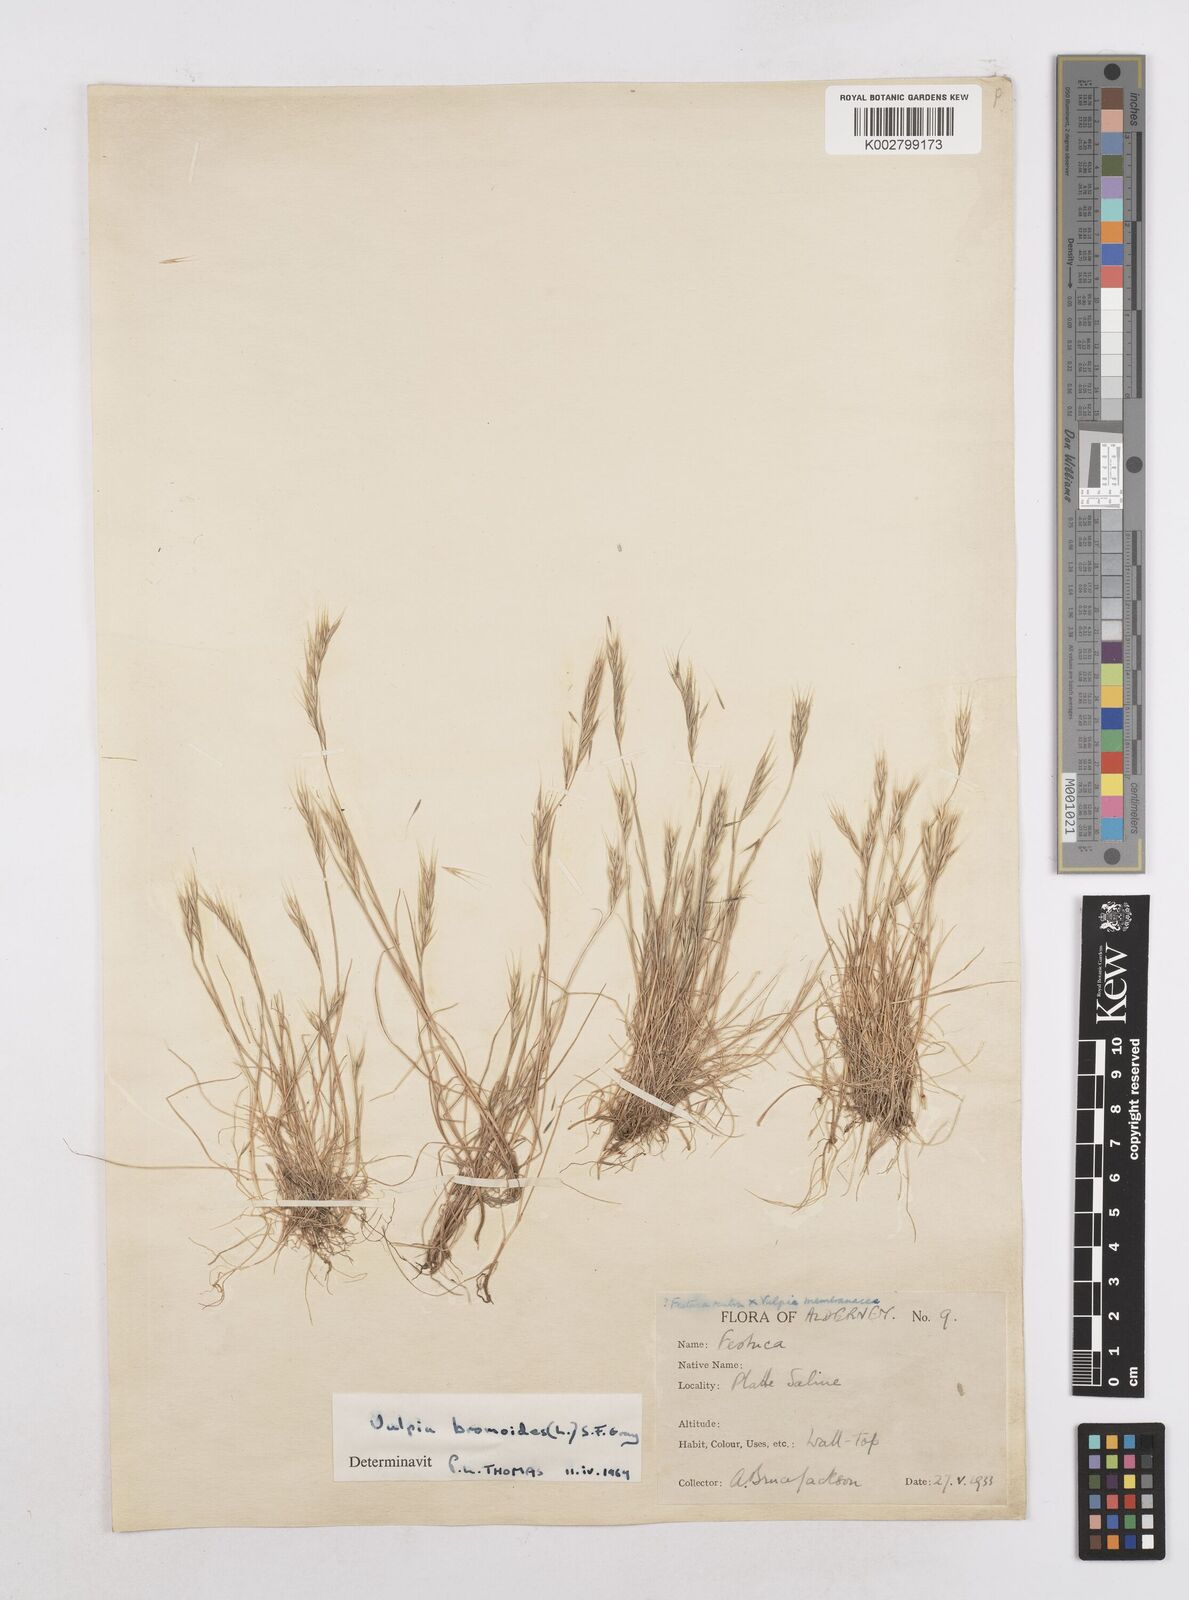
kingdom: Plantae
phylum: Tracheophyta
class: Liliopsida
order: Poales
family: Poaceae
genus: Festuca
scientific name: Festuca bromoides
